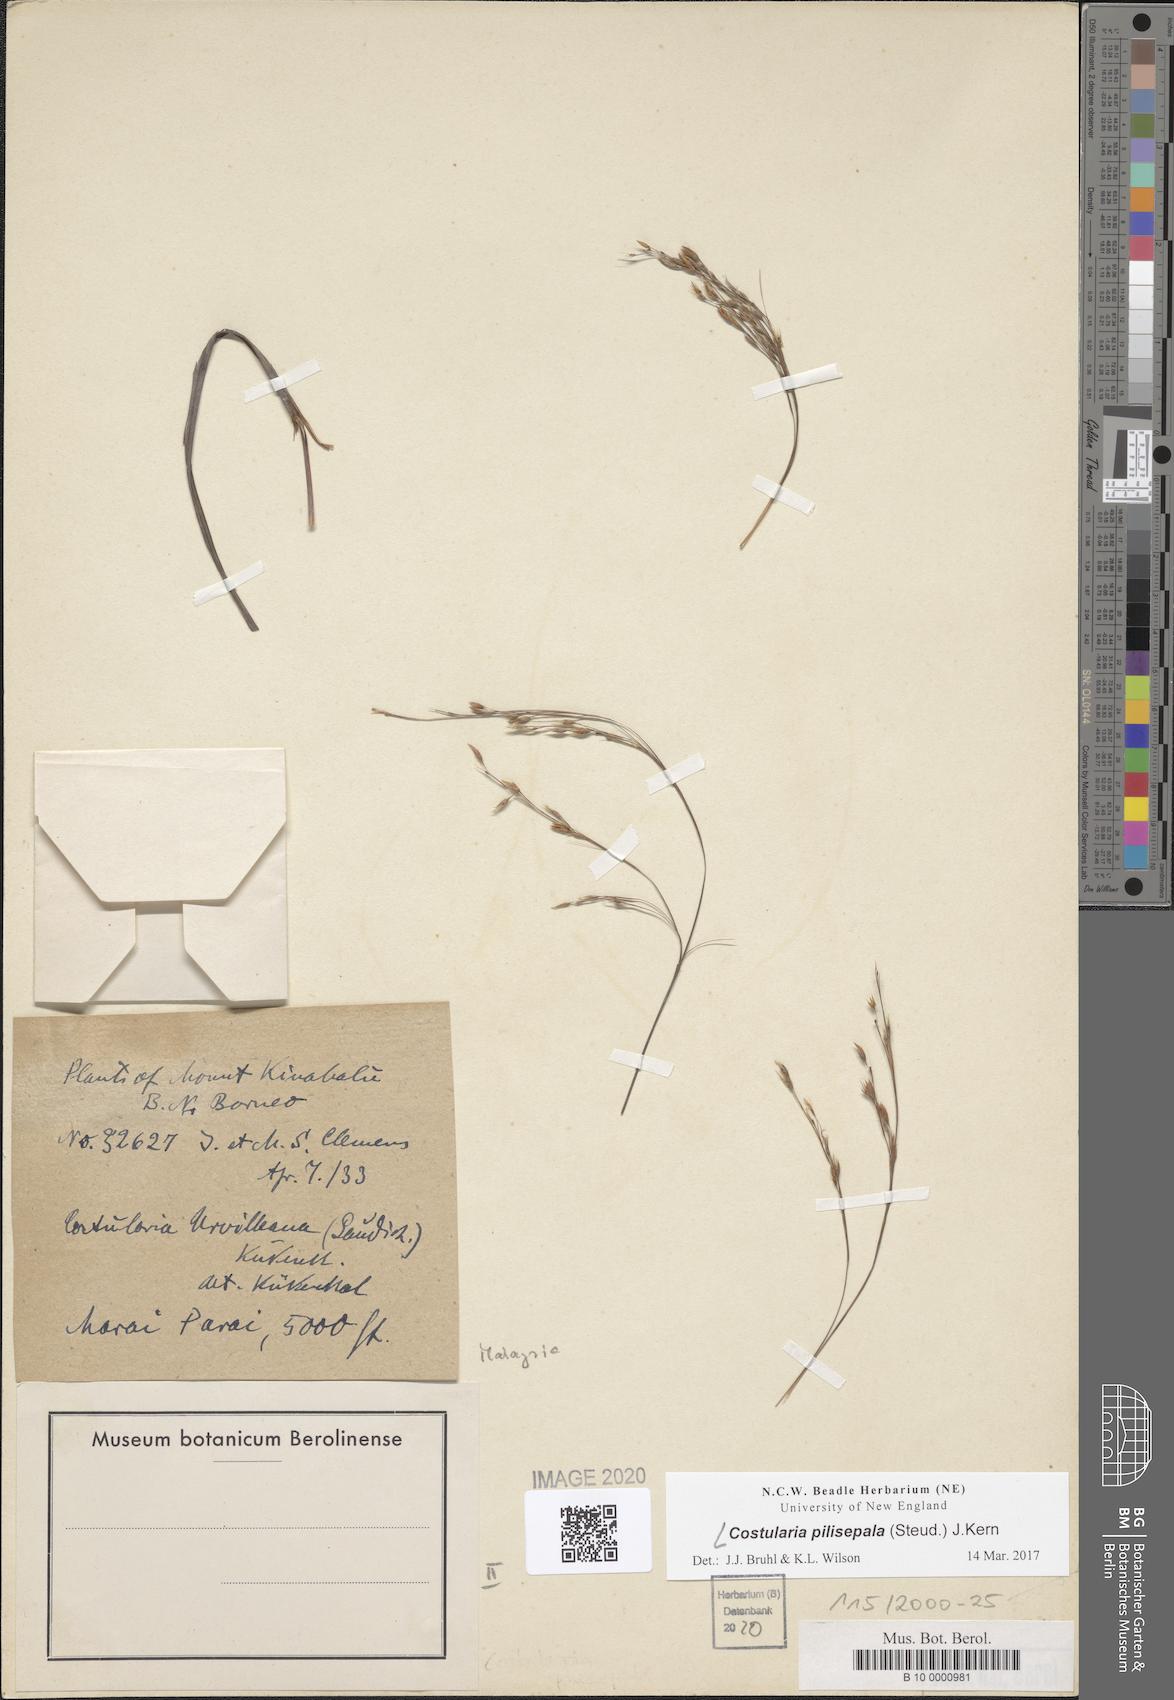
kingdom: Plantae
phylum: Tracheophyta
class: Liliopsida
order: Poales
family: Cyperaceae
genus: Tetraria
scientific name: Tetraria pilisepala
